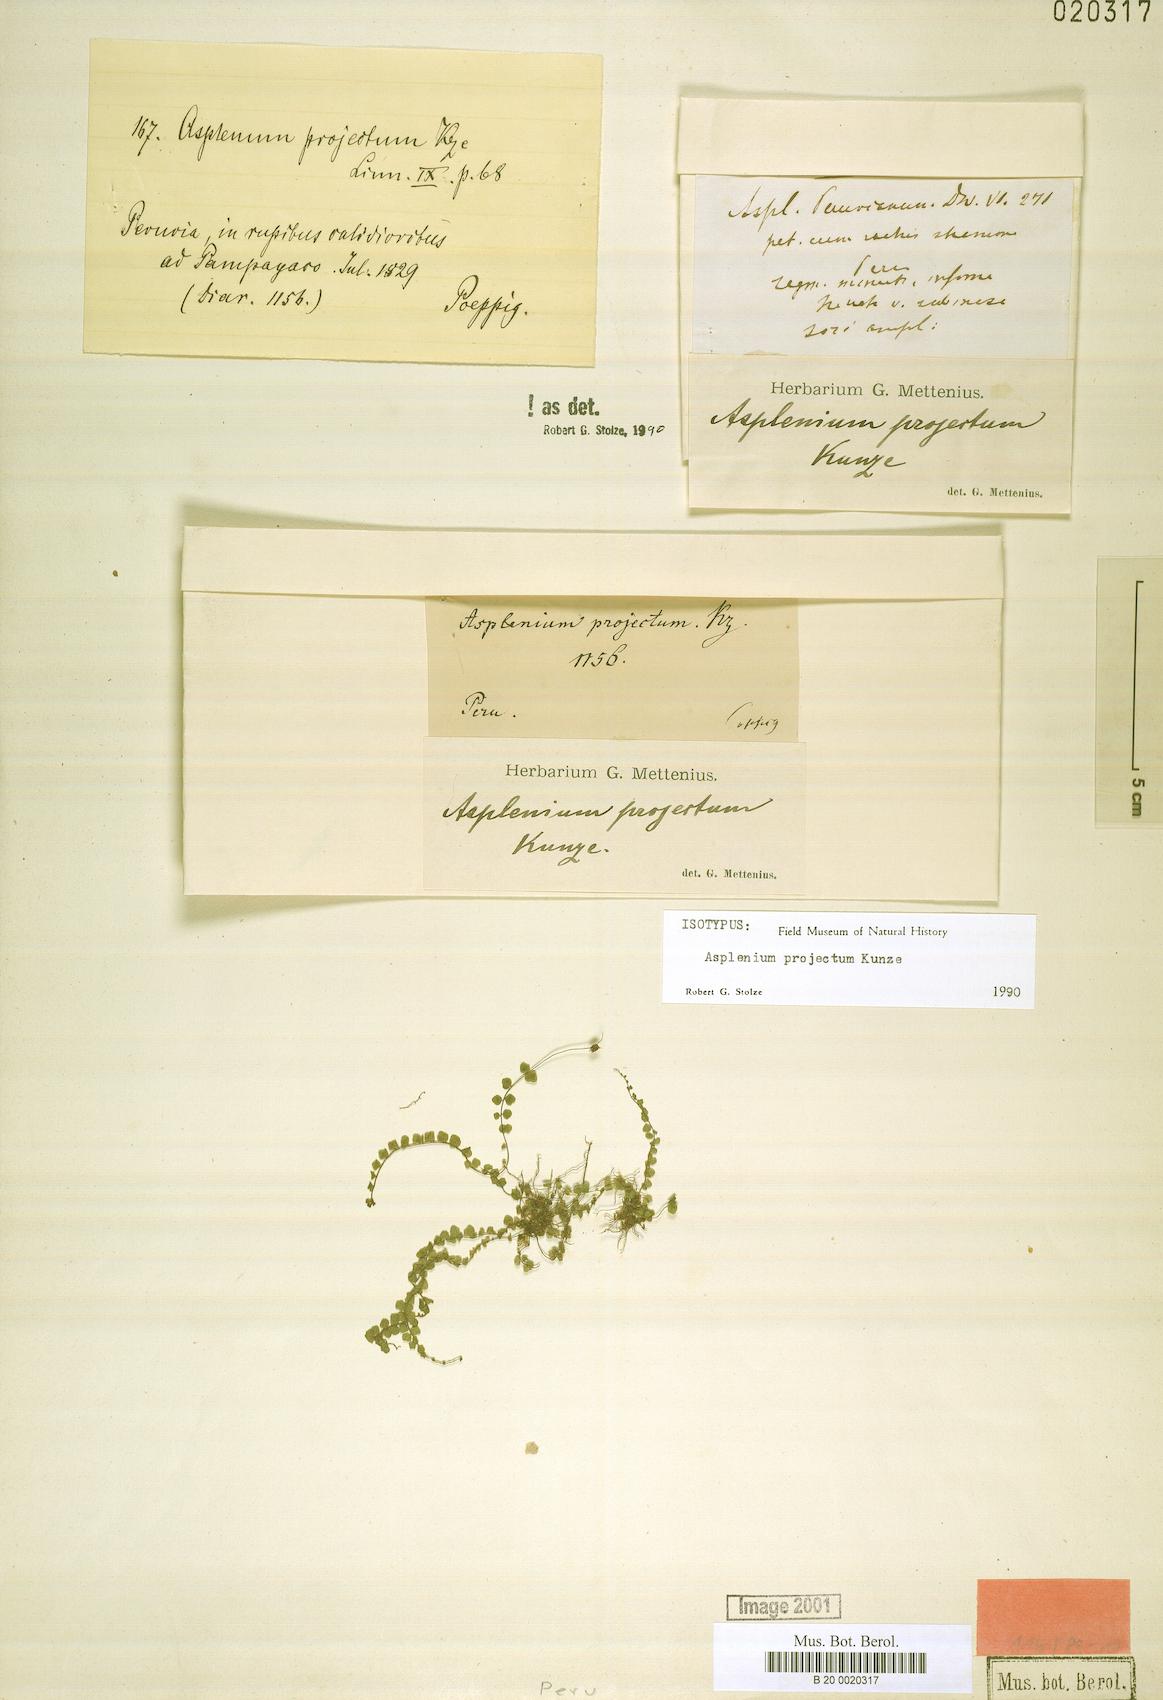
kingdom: Plantae
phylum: Tracheophyta
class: Polypodiopsida
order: Polypodiales
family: Aspleniaceae
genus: Asplenium
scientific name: Asplenium projectum
